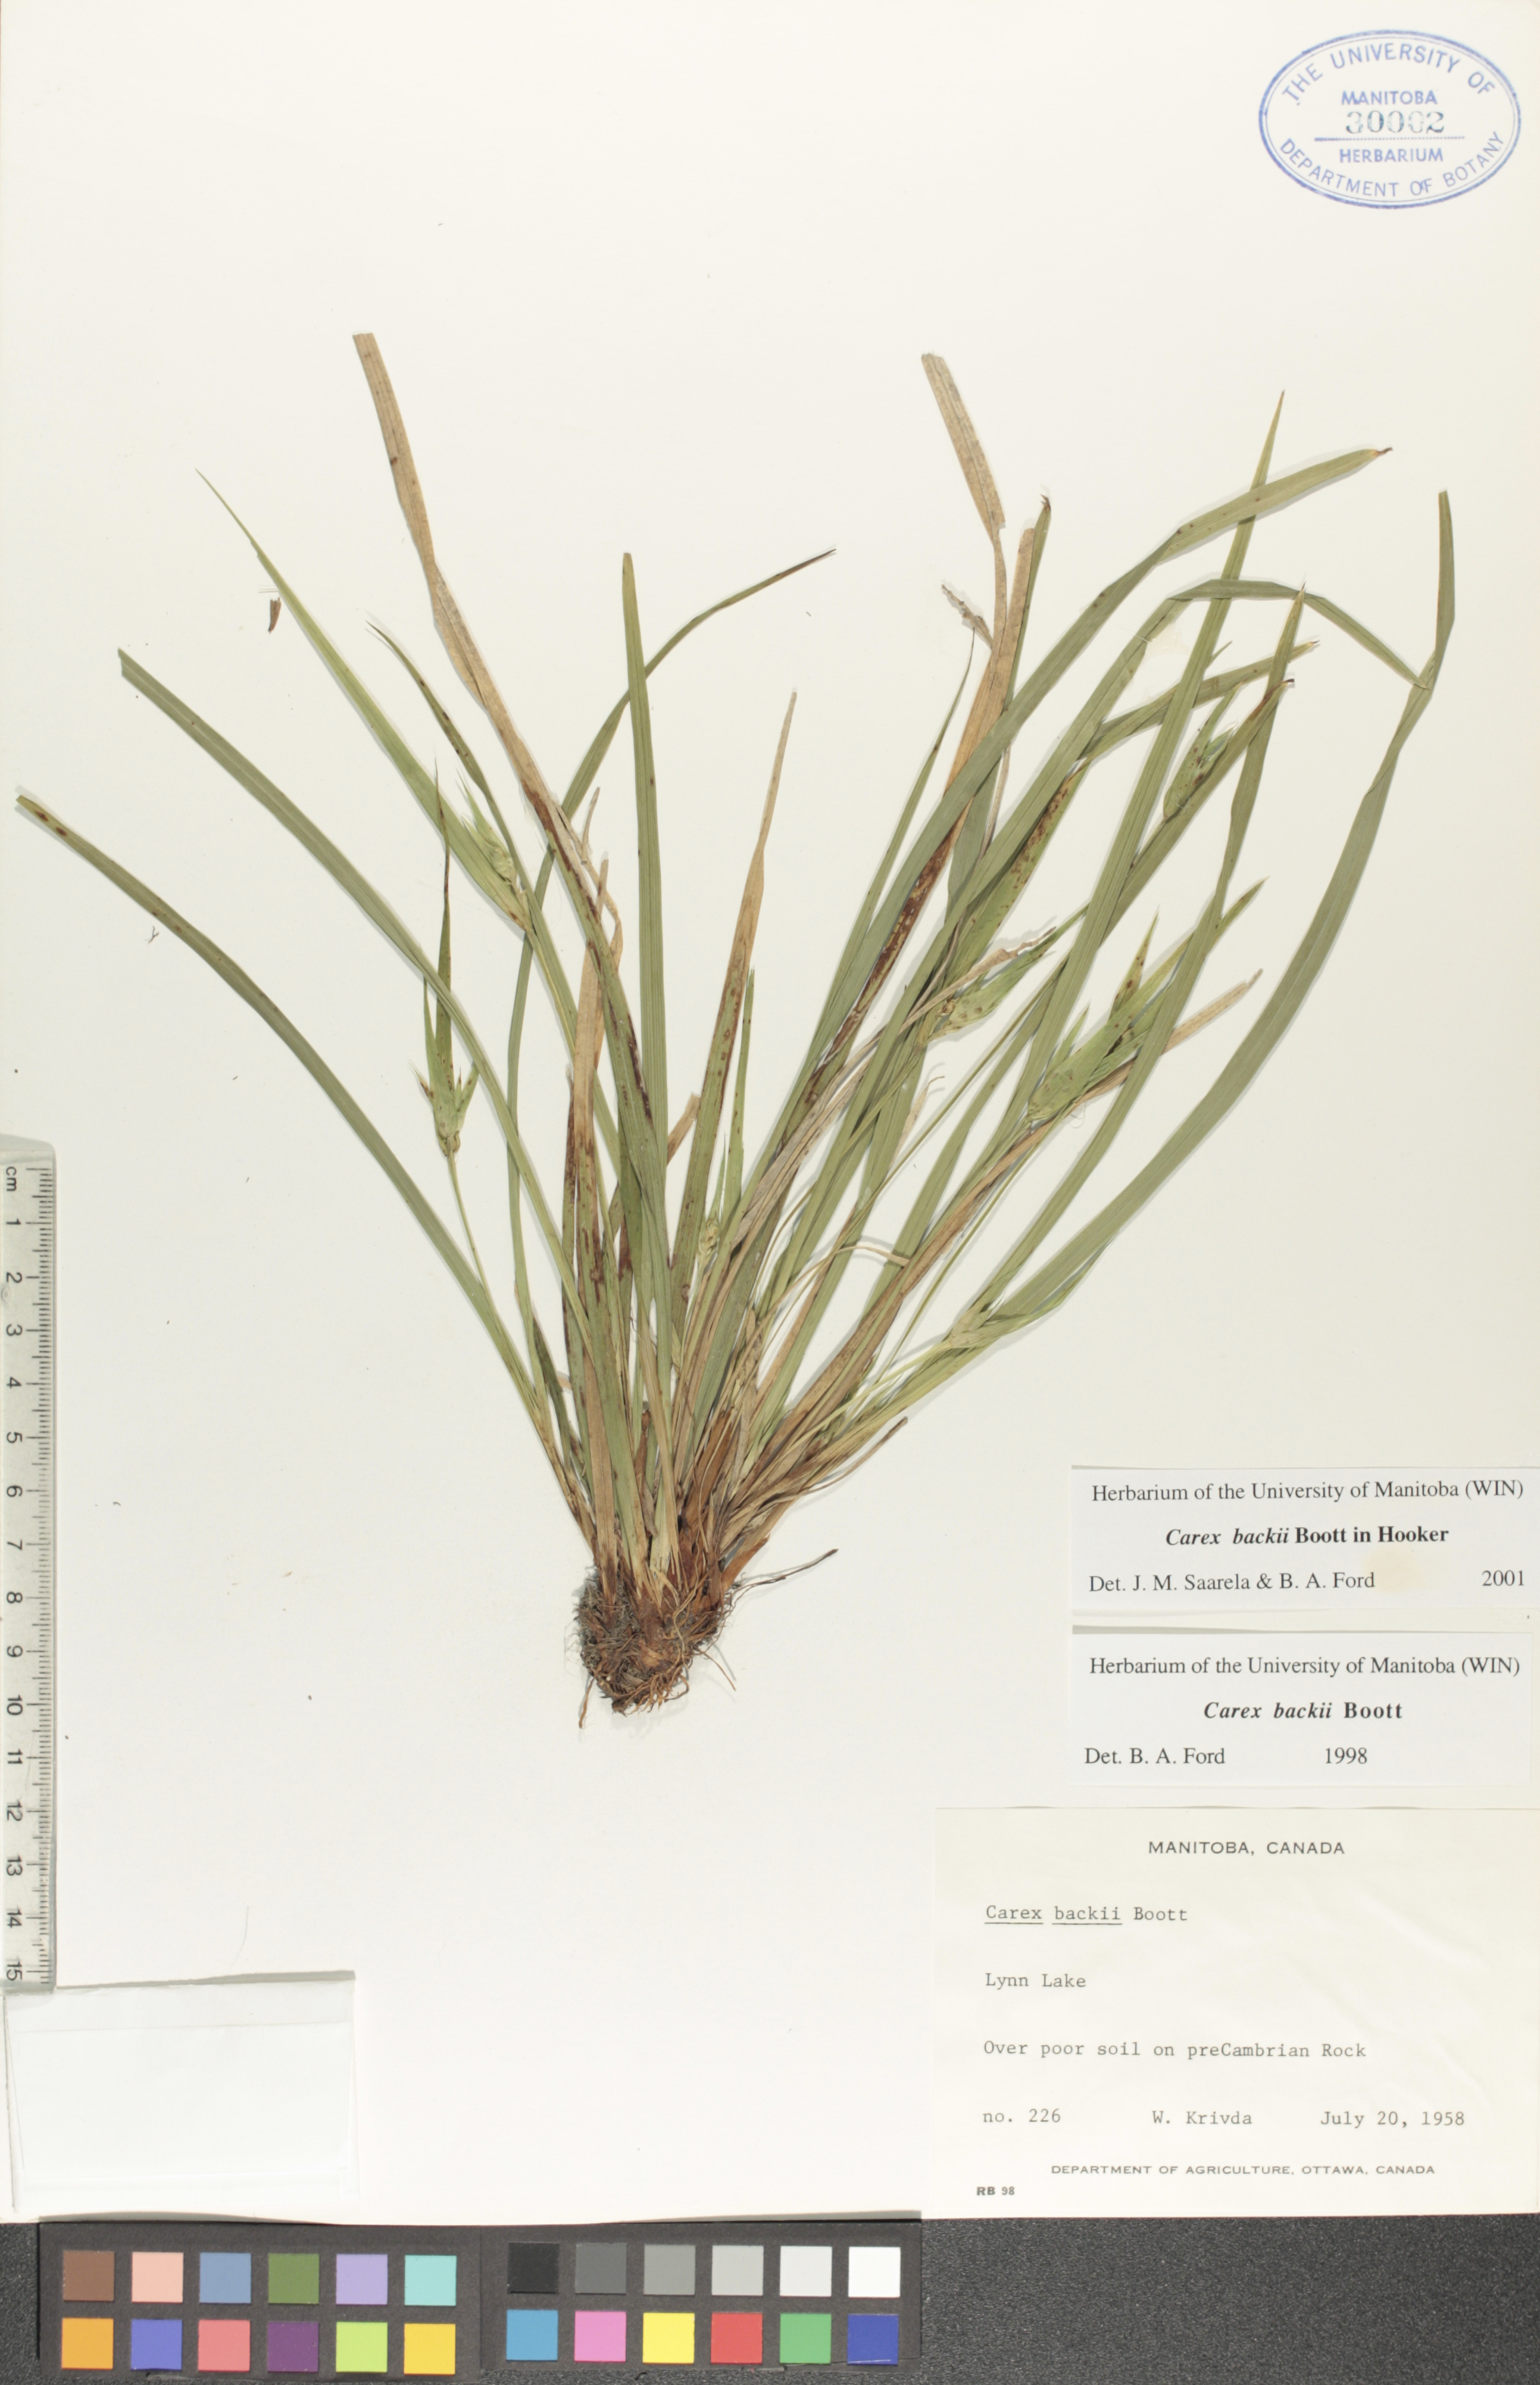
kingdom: Plantae
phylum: Tracheophyta
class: Liliopsida
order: Poales
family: Cyperaceae
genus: Carex
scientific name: Carex backii
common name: Back's sedge
